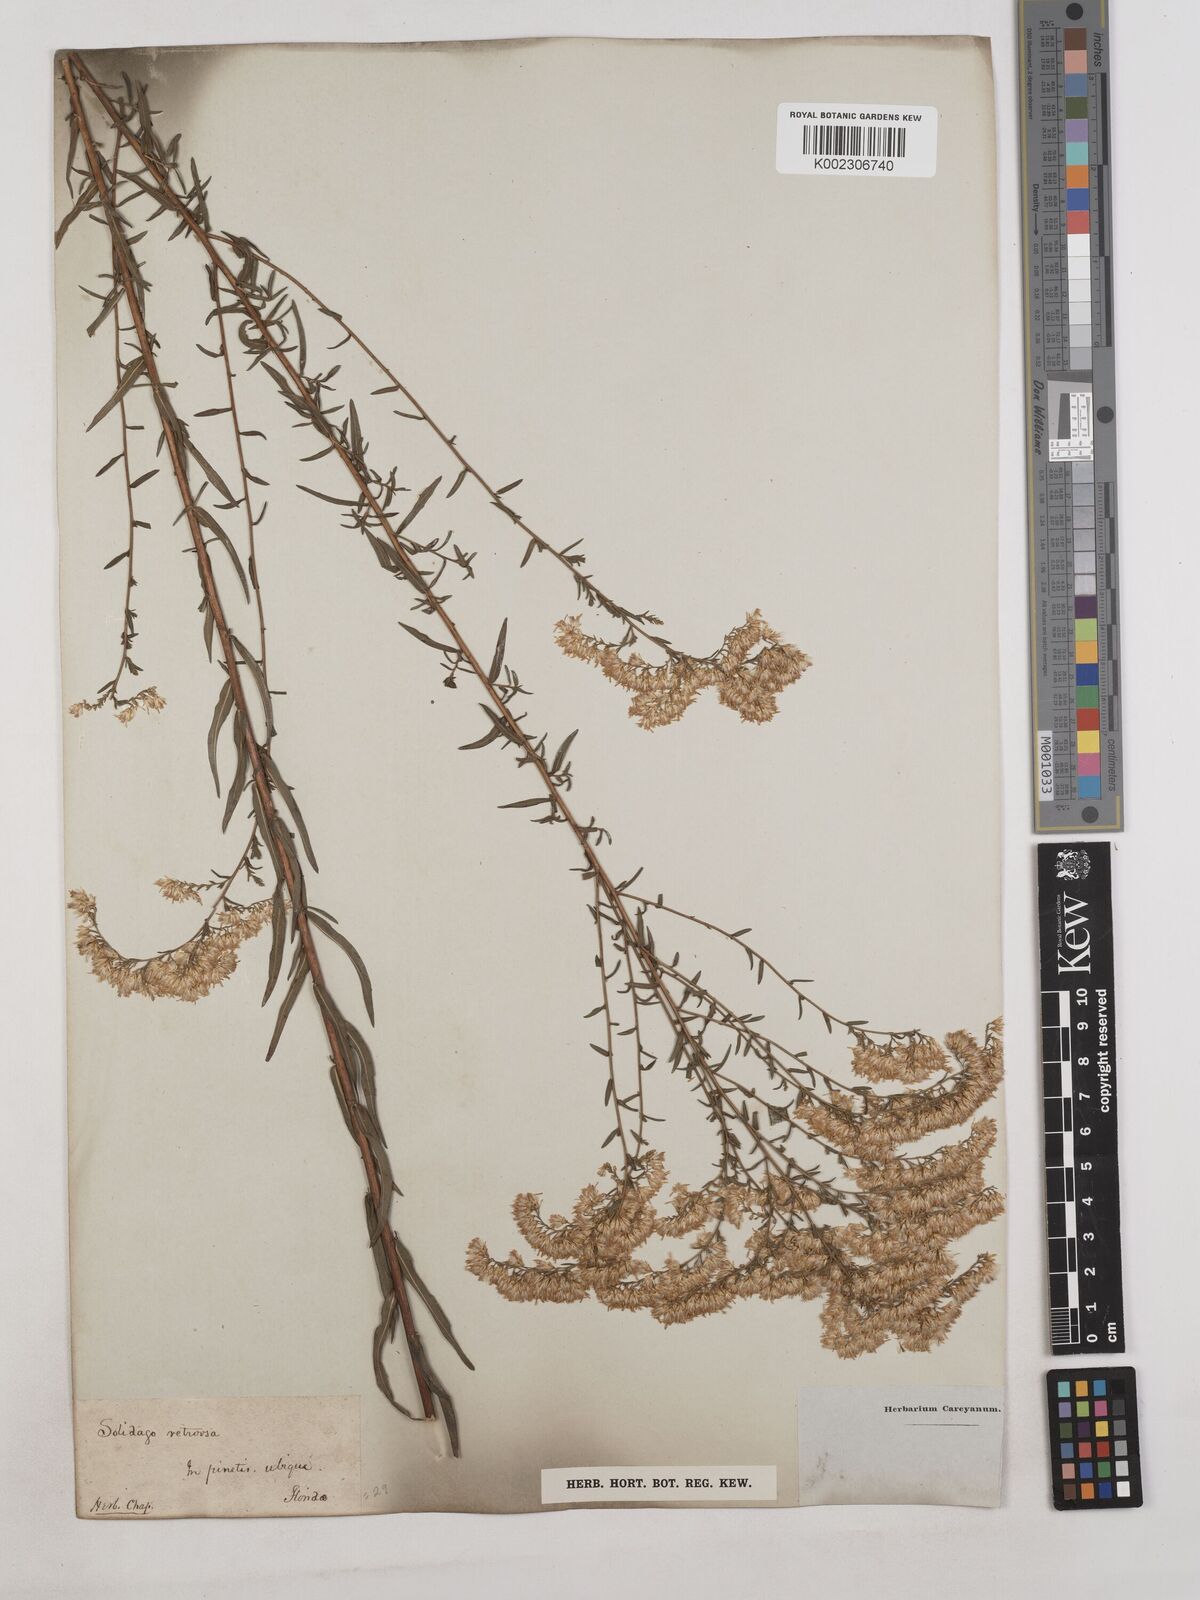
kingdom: Plantae
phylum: Tracheophyta
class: Magnoliopsida
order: Asterales
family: Asteraceae
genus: Solidago
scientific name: Solidago tortifolia
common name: Twisted-leaf goldenrod
